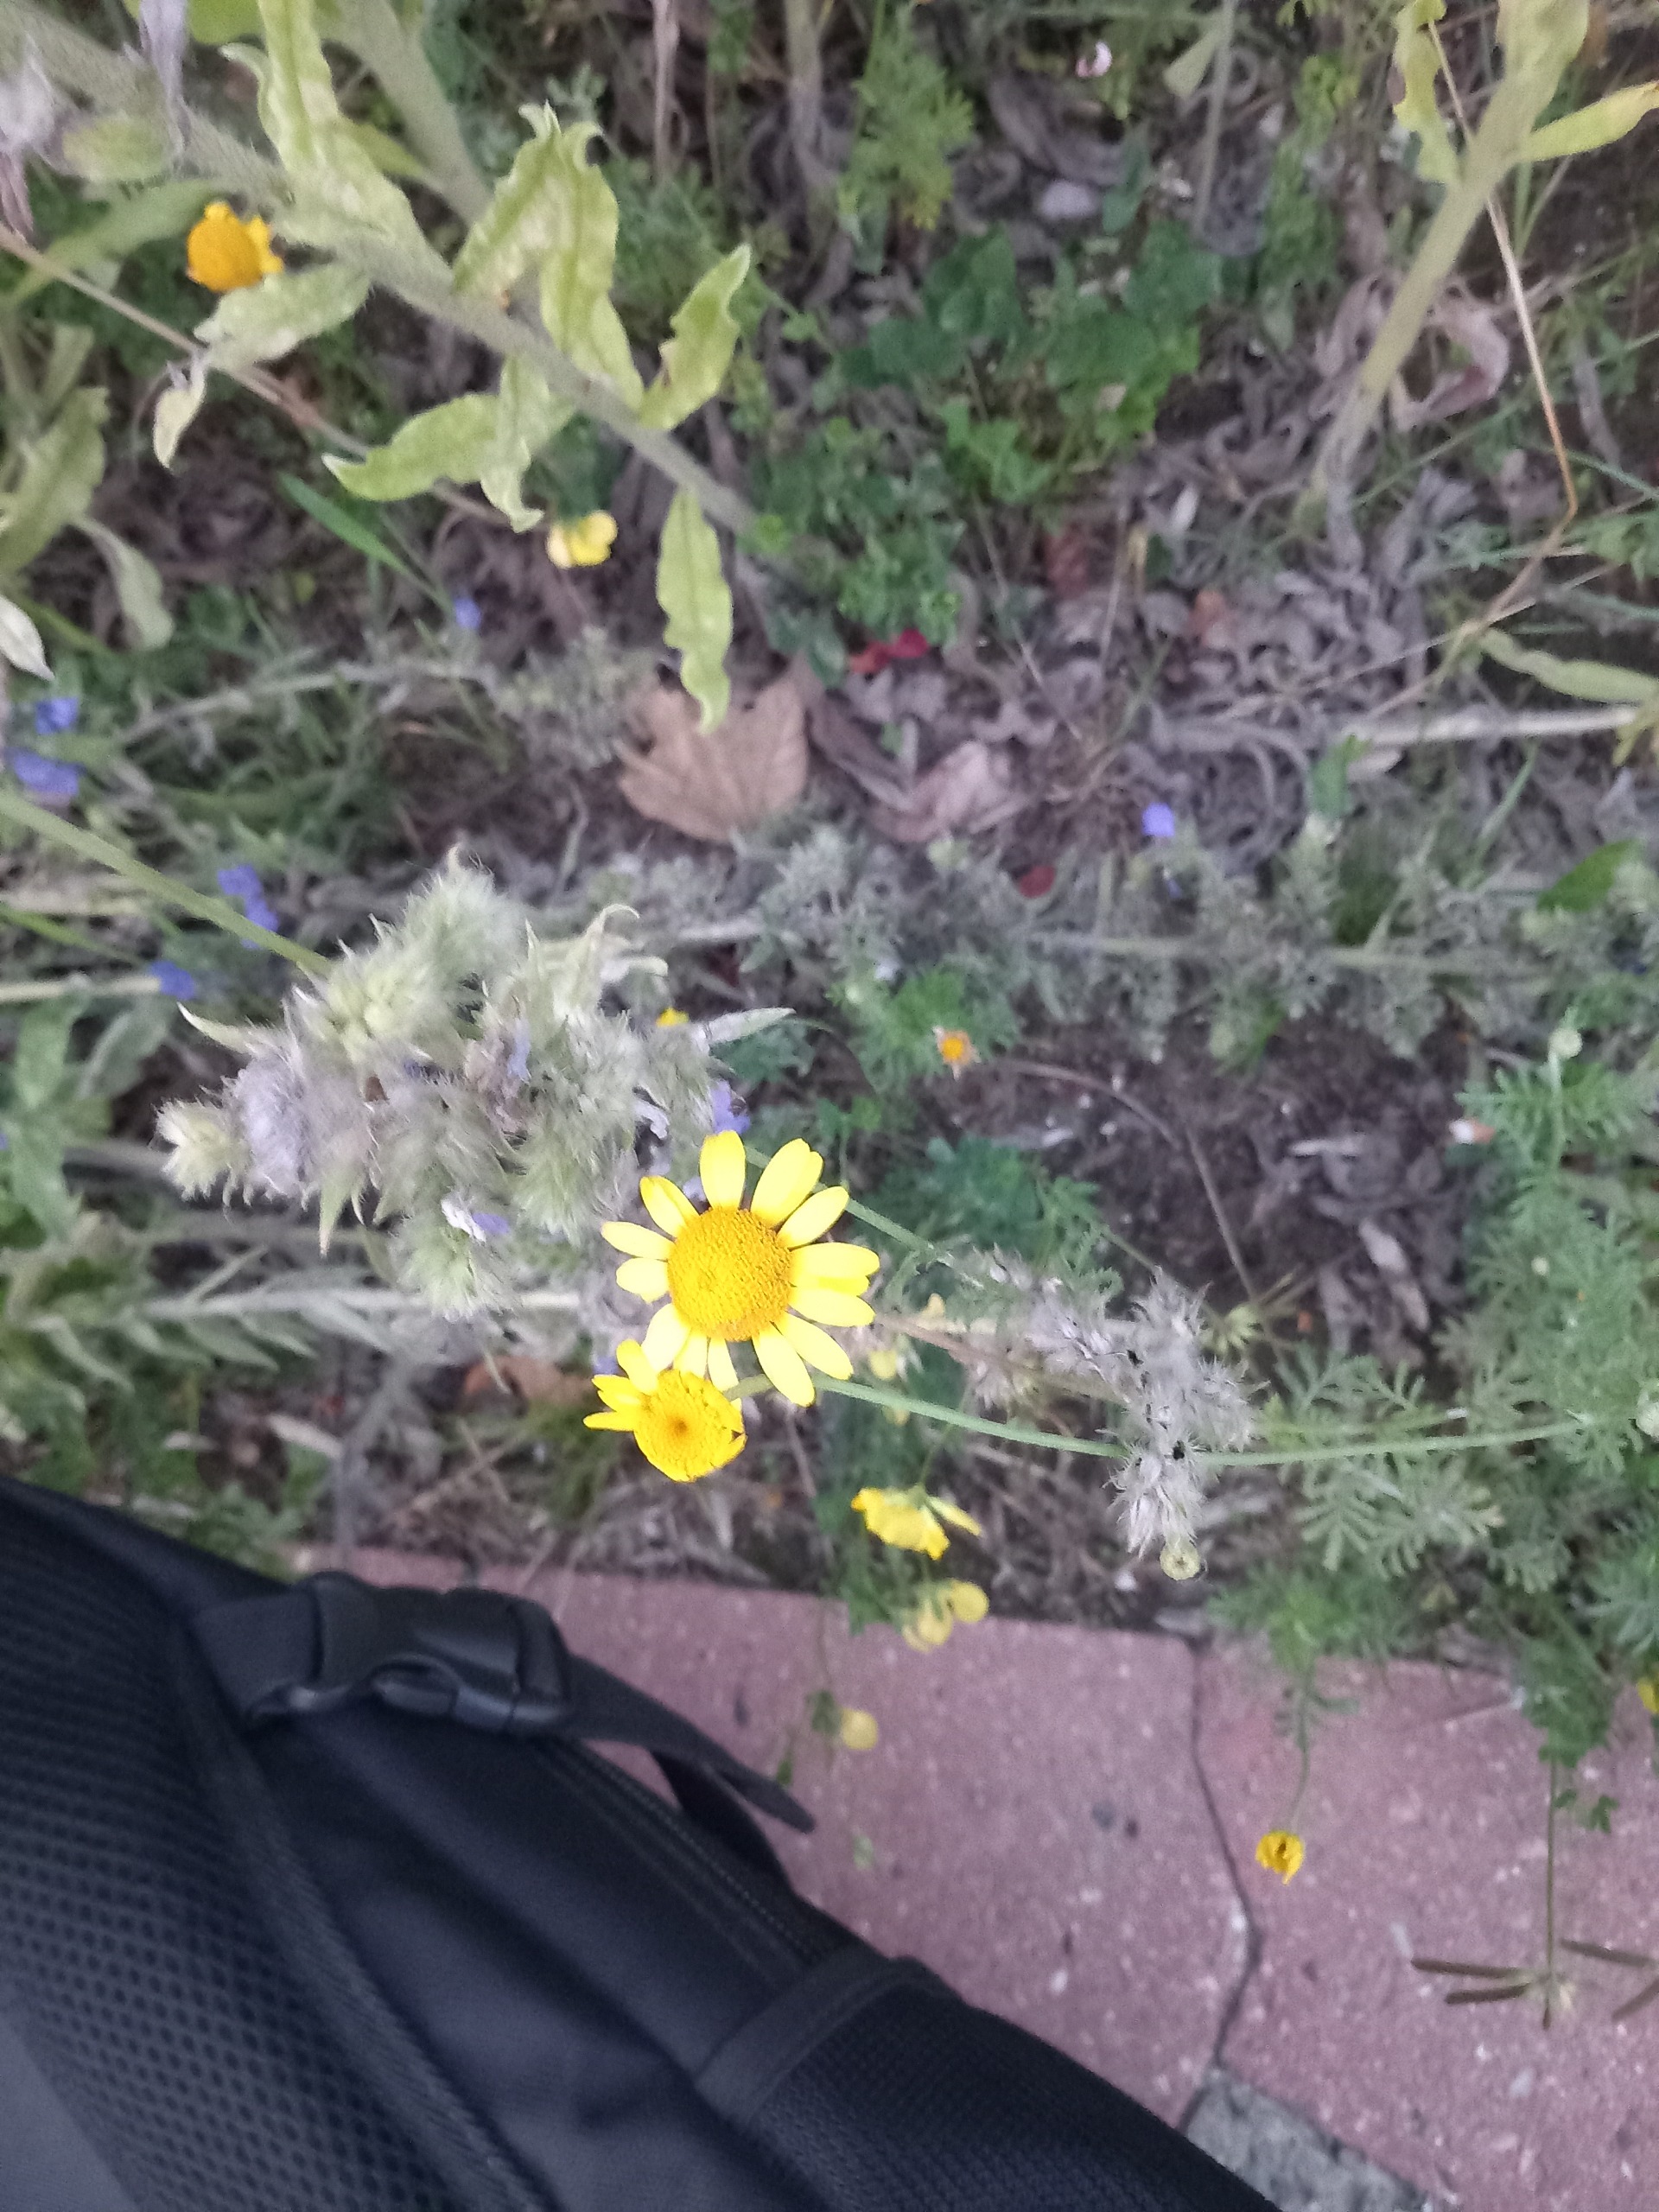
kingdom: Plantae
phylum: Tracheophyta
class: Magnoliopsida
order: Asterales
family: Asteraceae
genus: Cota
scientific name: Cota tinctoria
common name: Farve-gåseurt
